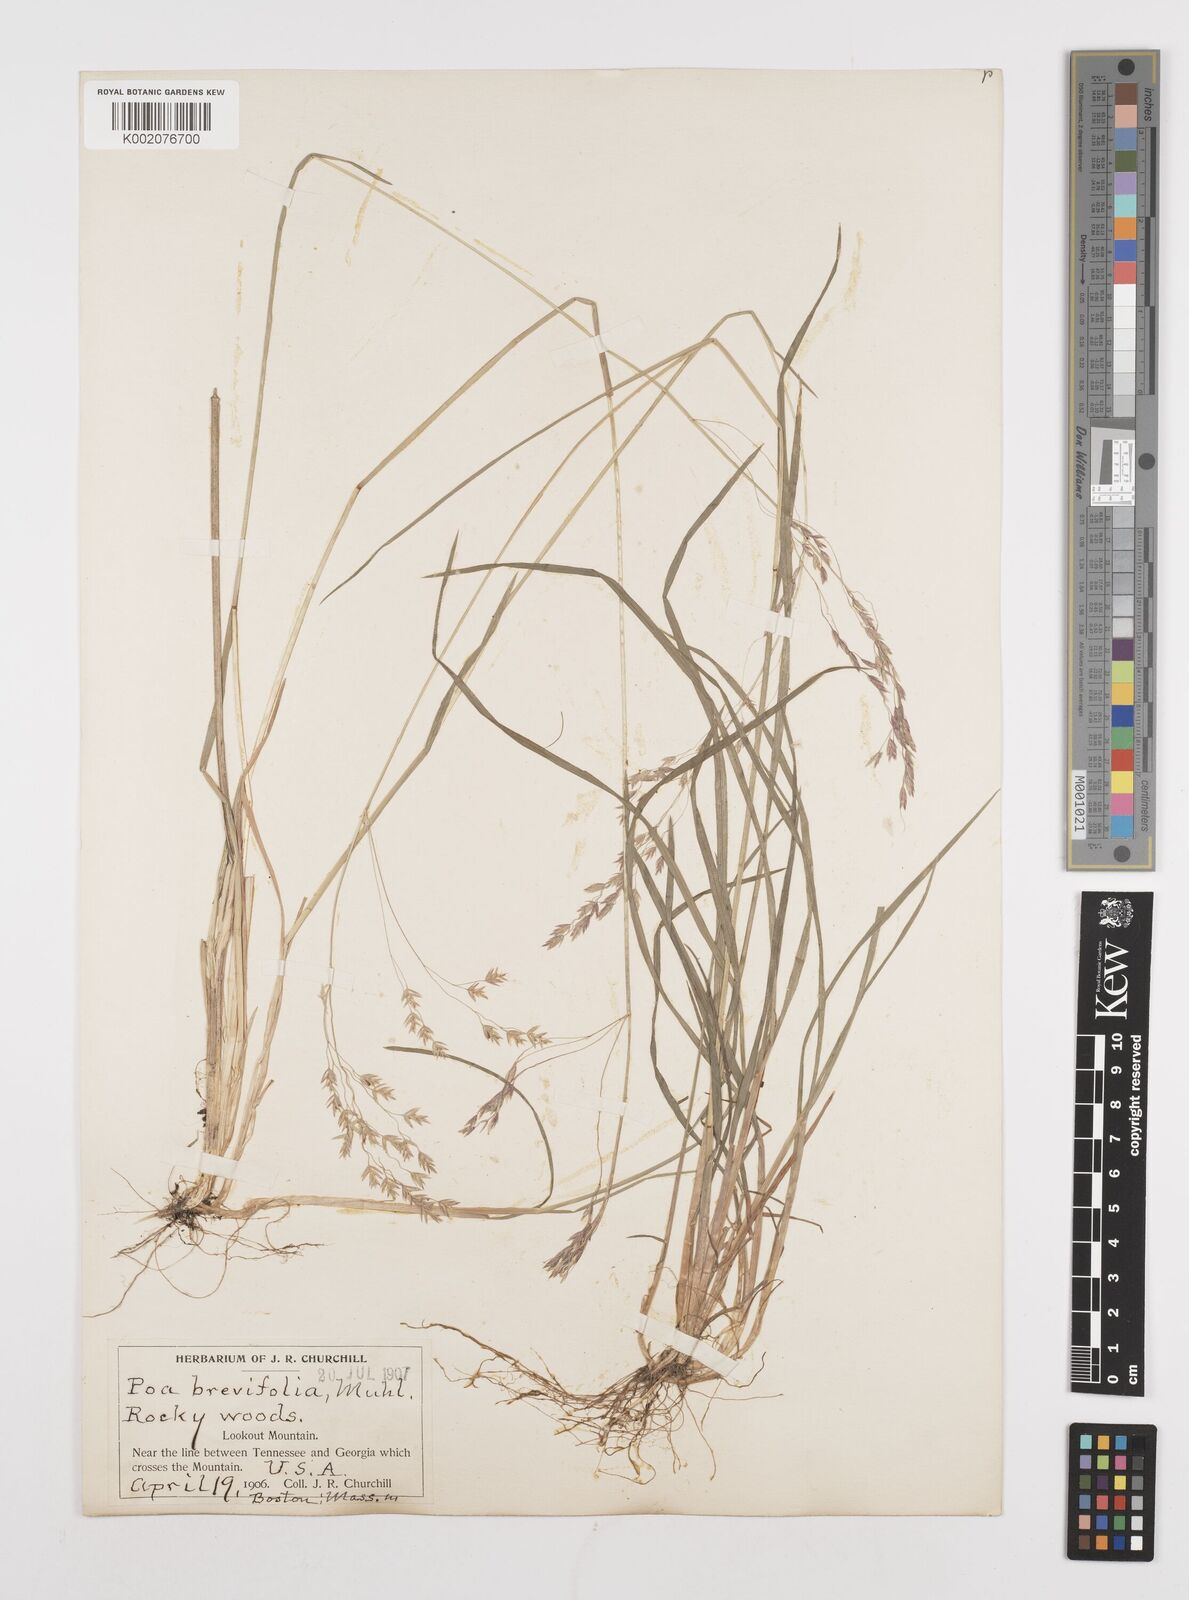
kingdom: Plantae
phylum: Tracheophyta
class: Liliopsida
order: Poales
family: Poaceae
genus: Poa
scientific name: Poa
